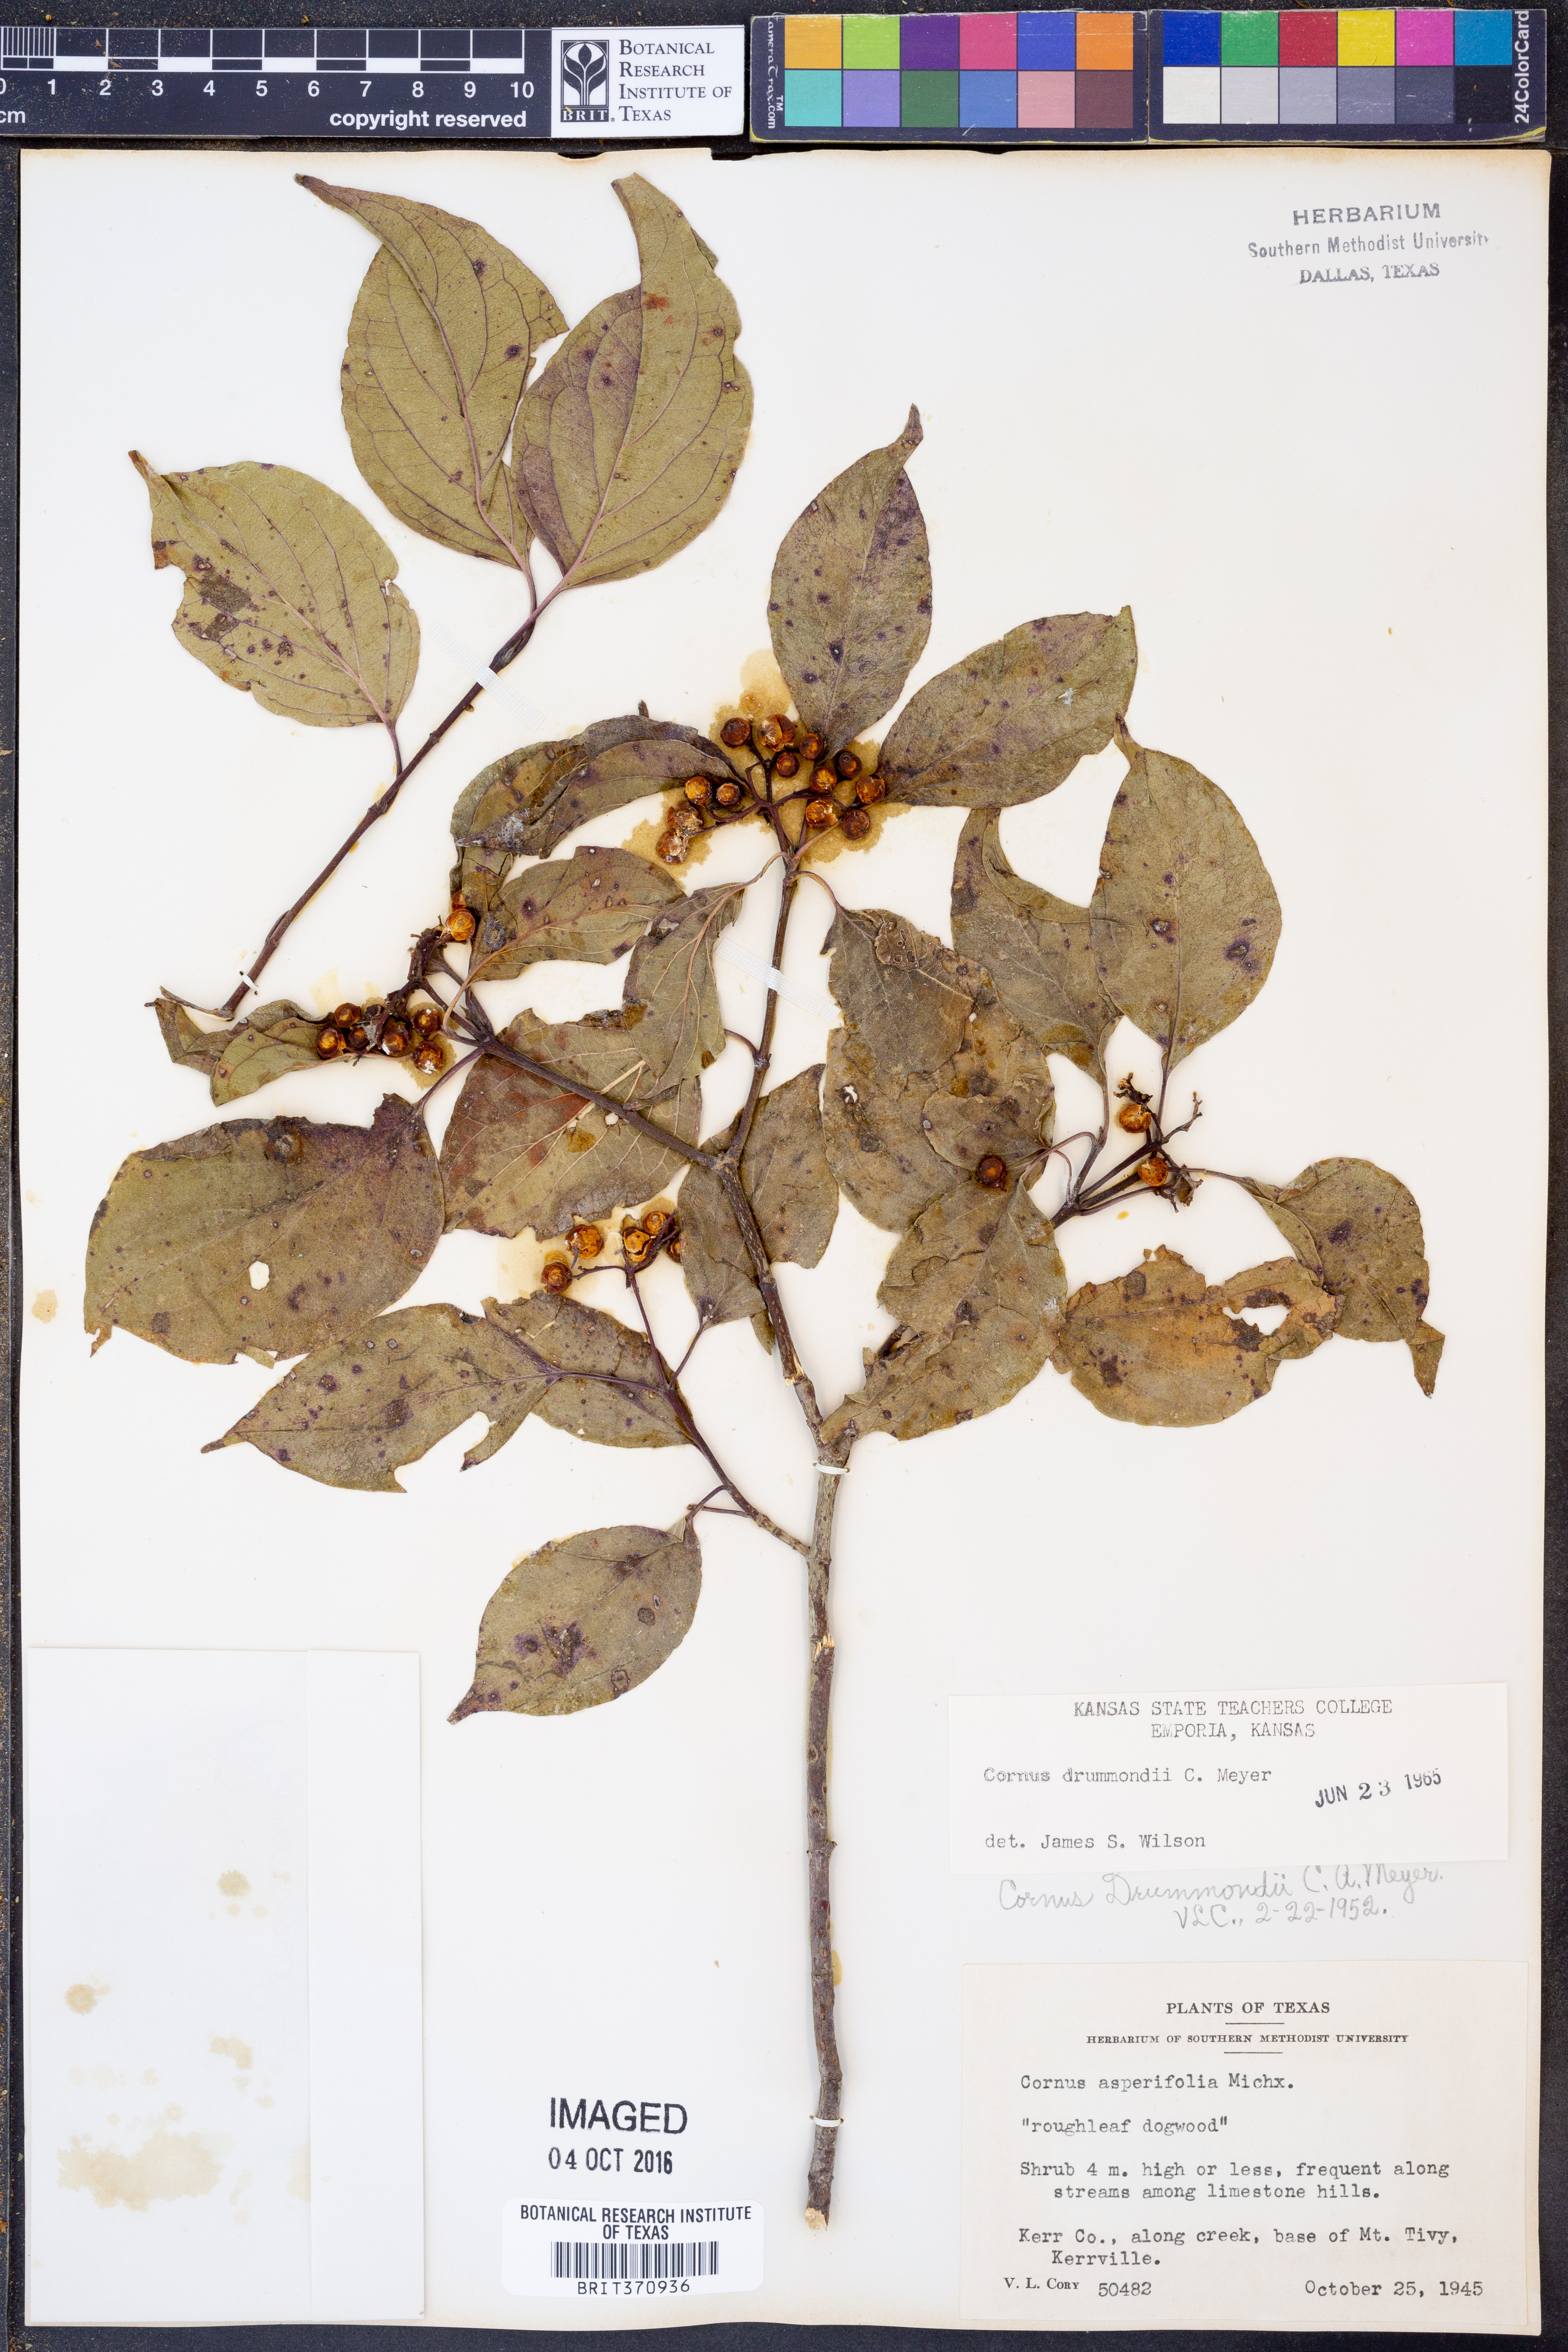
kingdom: Plantae
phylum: Tracheophyta
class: Magnoliopsida
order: Cornales
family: Cornaceae
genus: Cornus
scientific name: Cornus drummondii
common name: Rough-leaf dogwood
